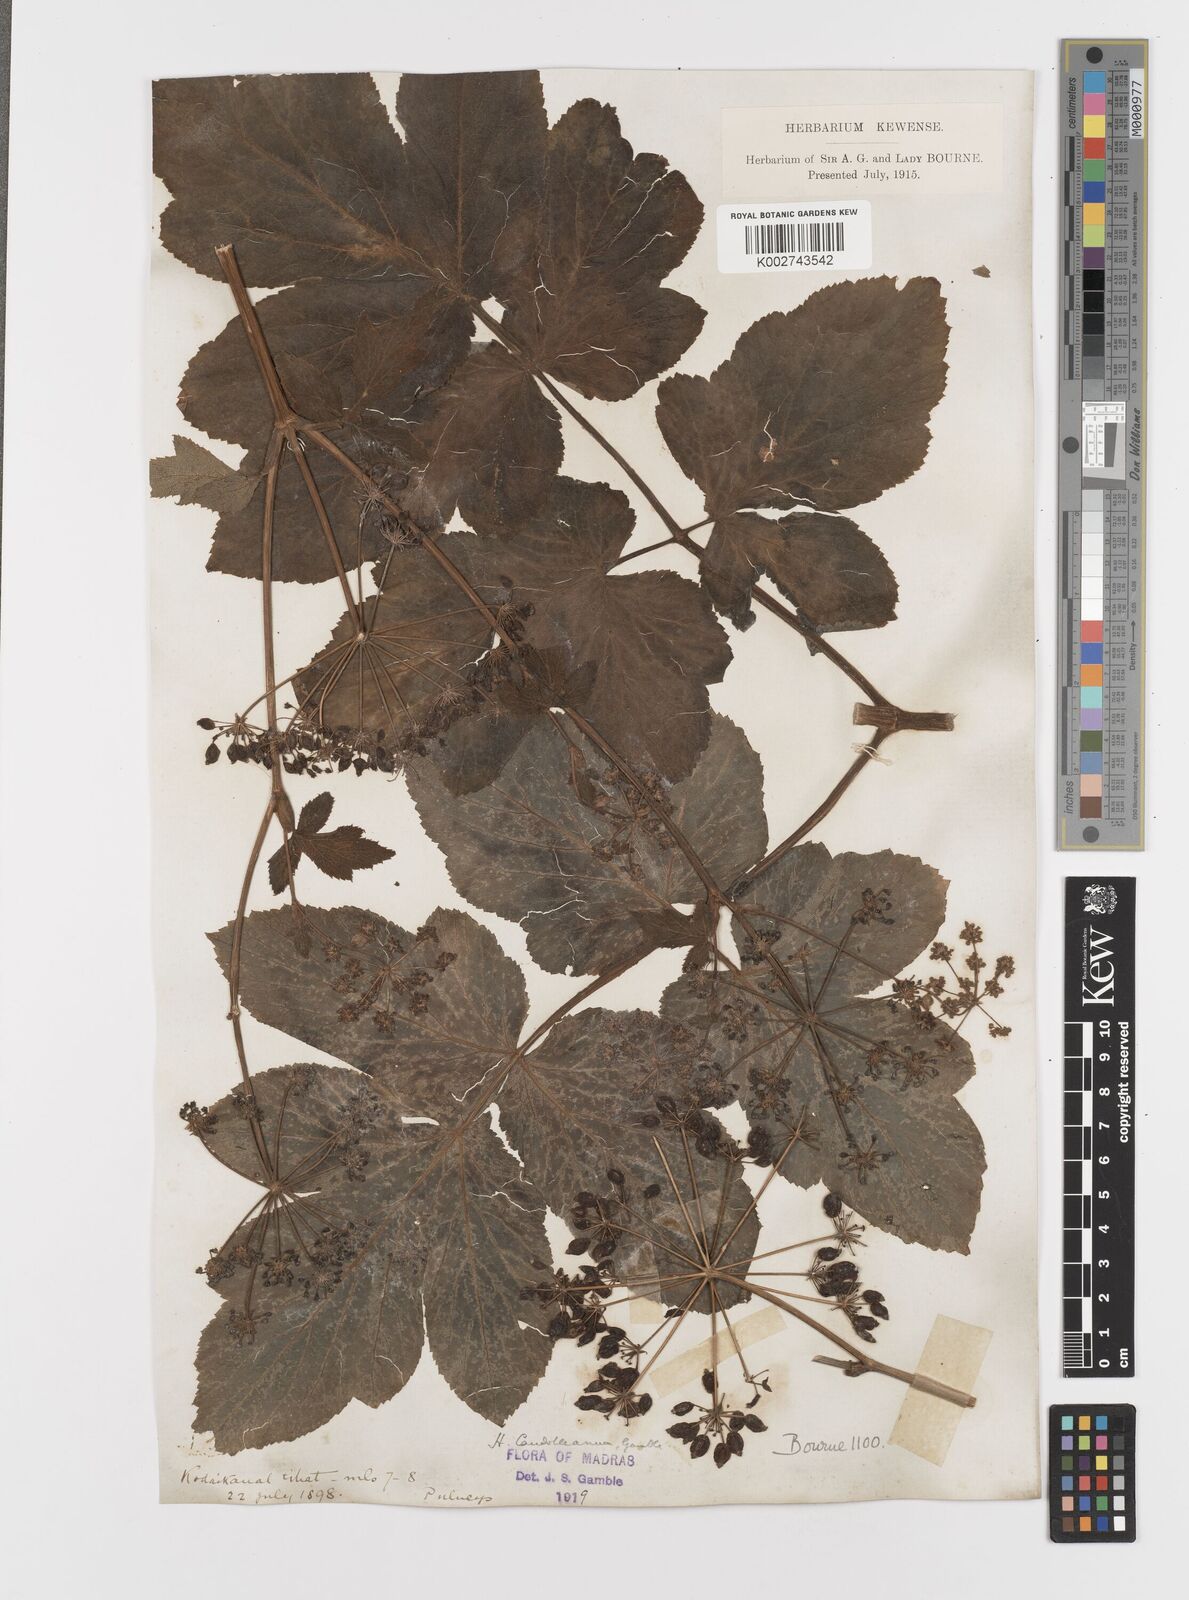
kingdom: Plantae
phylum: Tracheophyta
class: Magnoliopsida
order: Apiales
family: Apiaceae
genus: Tetrataenium
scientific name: Tetrataenium rigens
